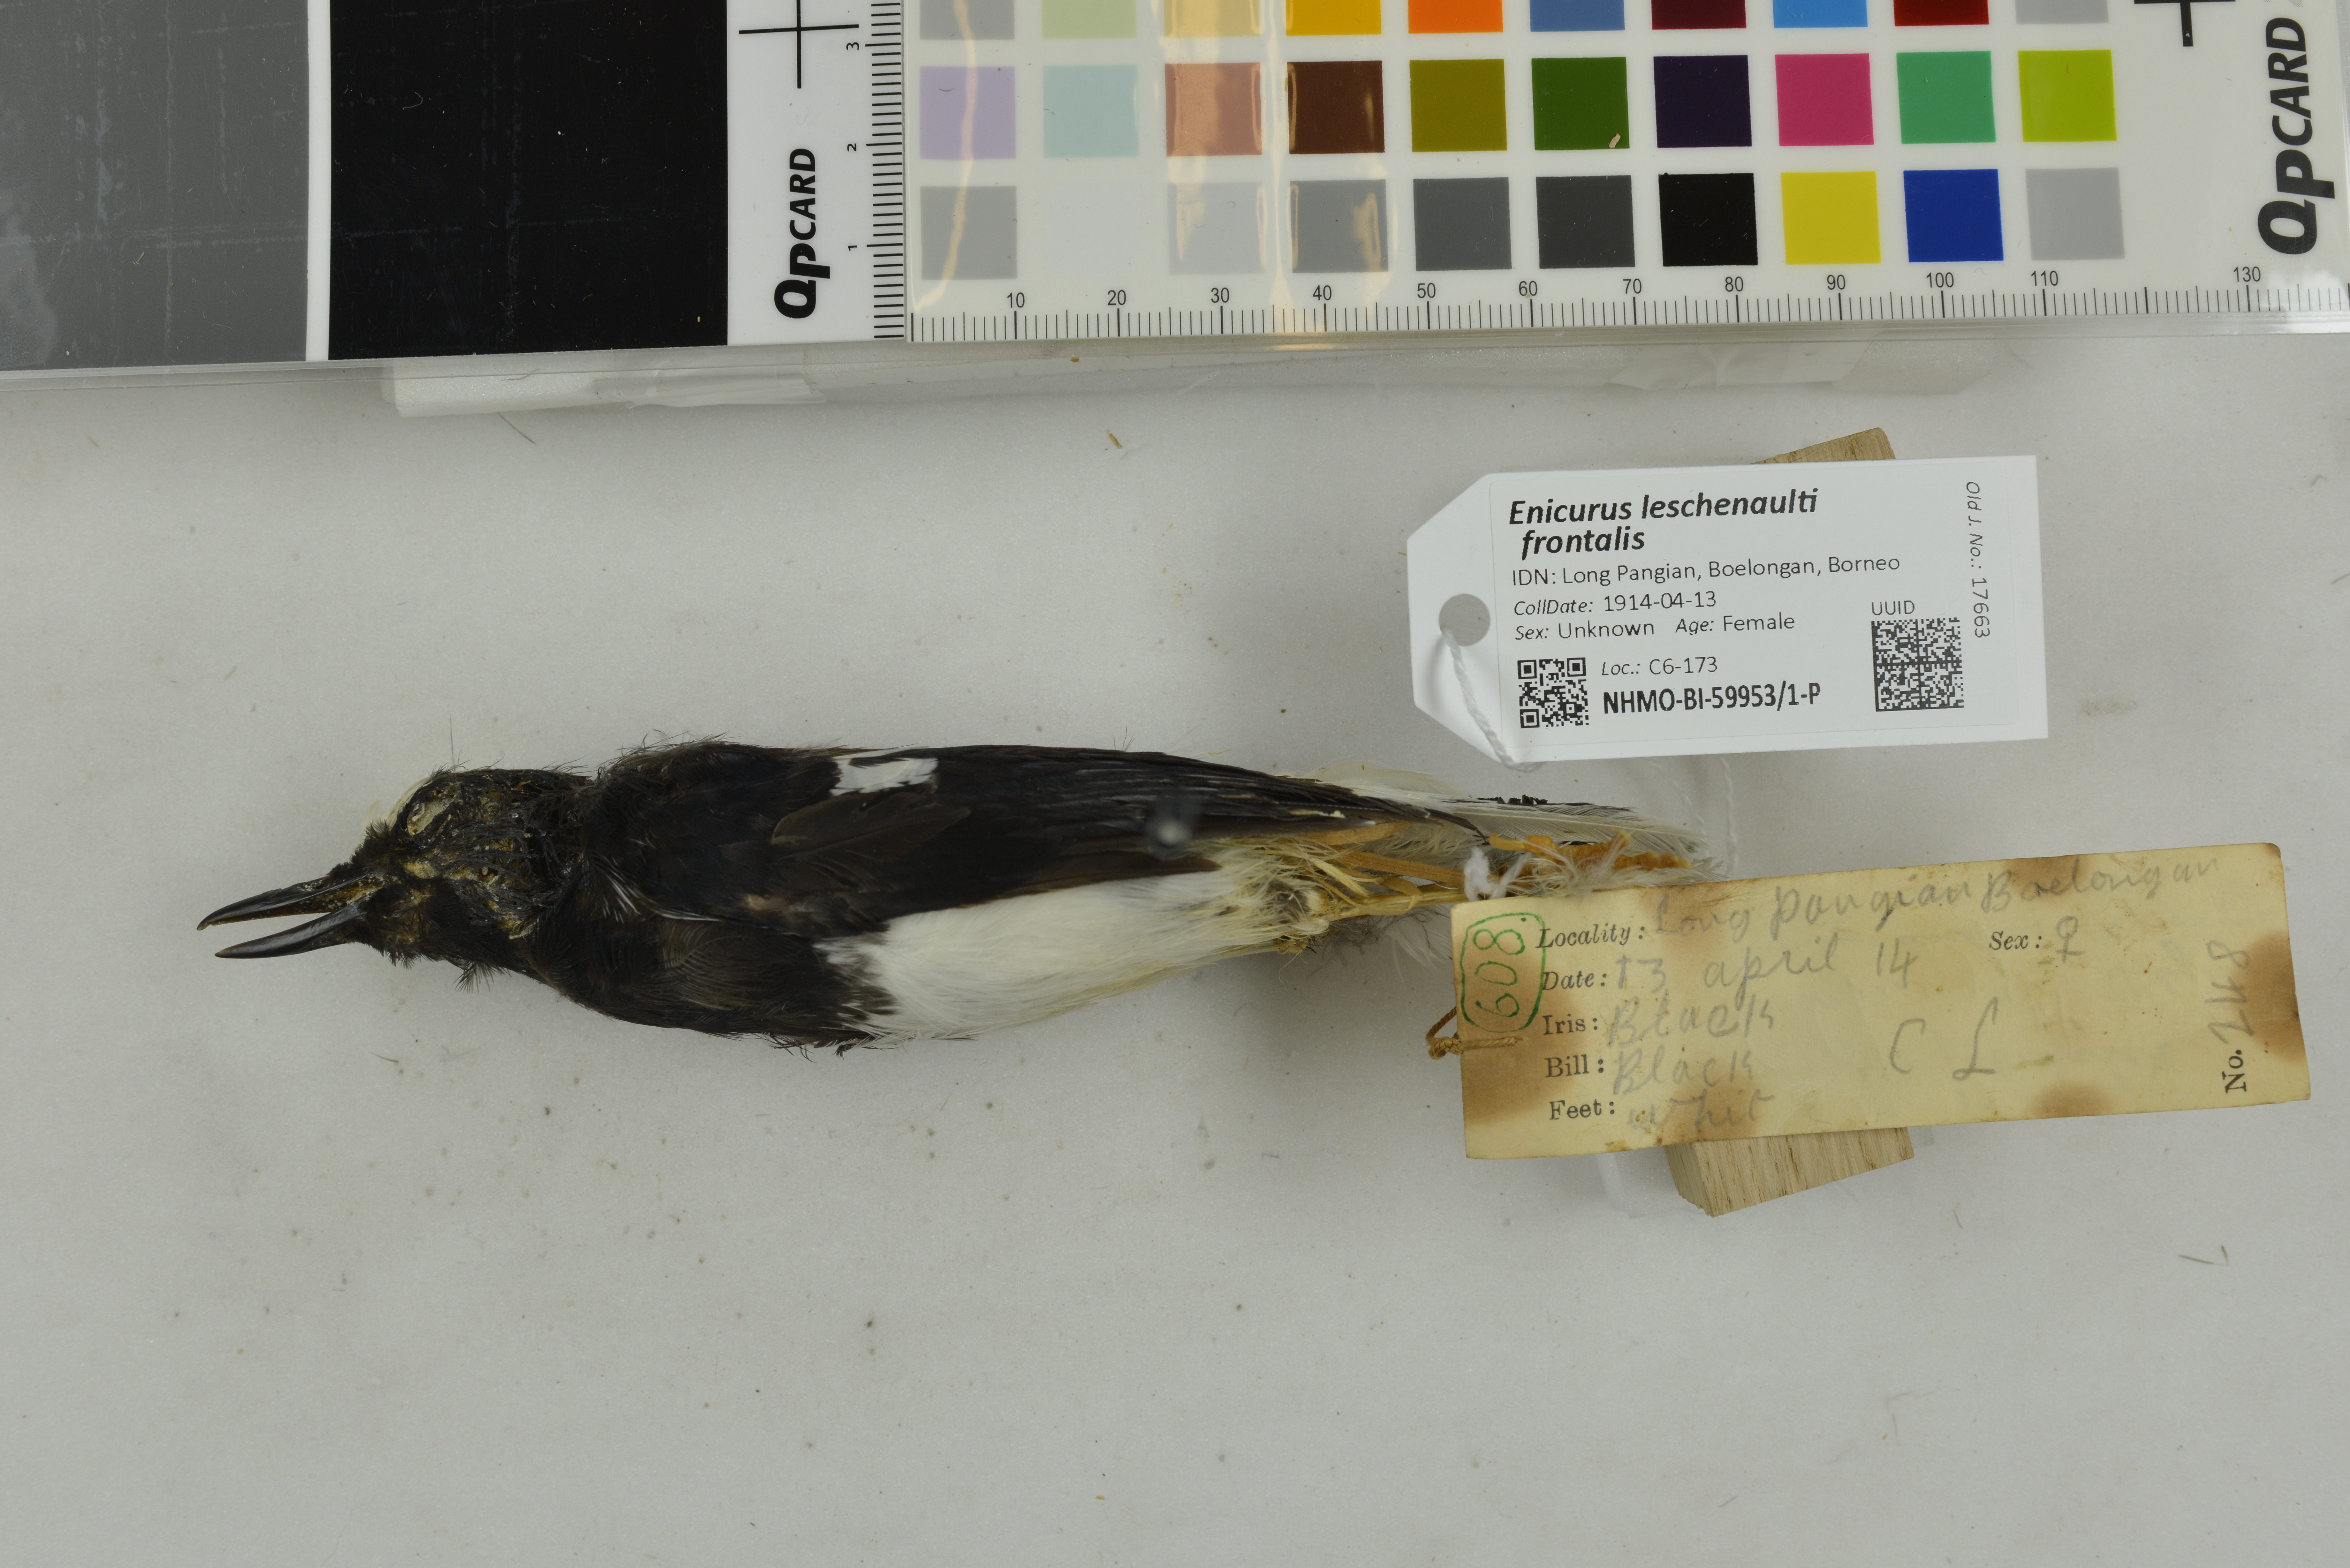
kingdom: Animalia
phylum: Chordata
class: Aves
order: Passeriformes
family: Muscicapidae
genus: Enicurus
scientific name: Enicurus leschenaulti
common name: White-crowned forktail
